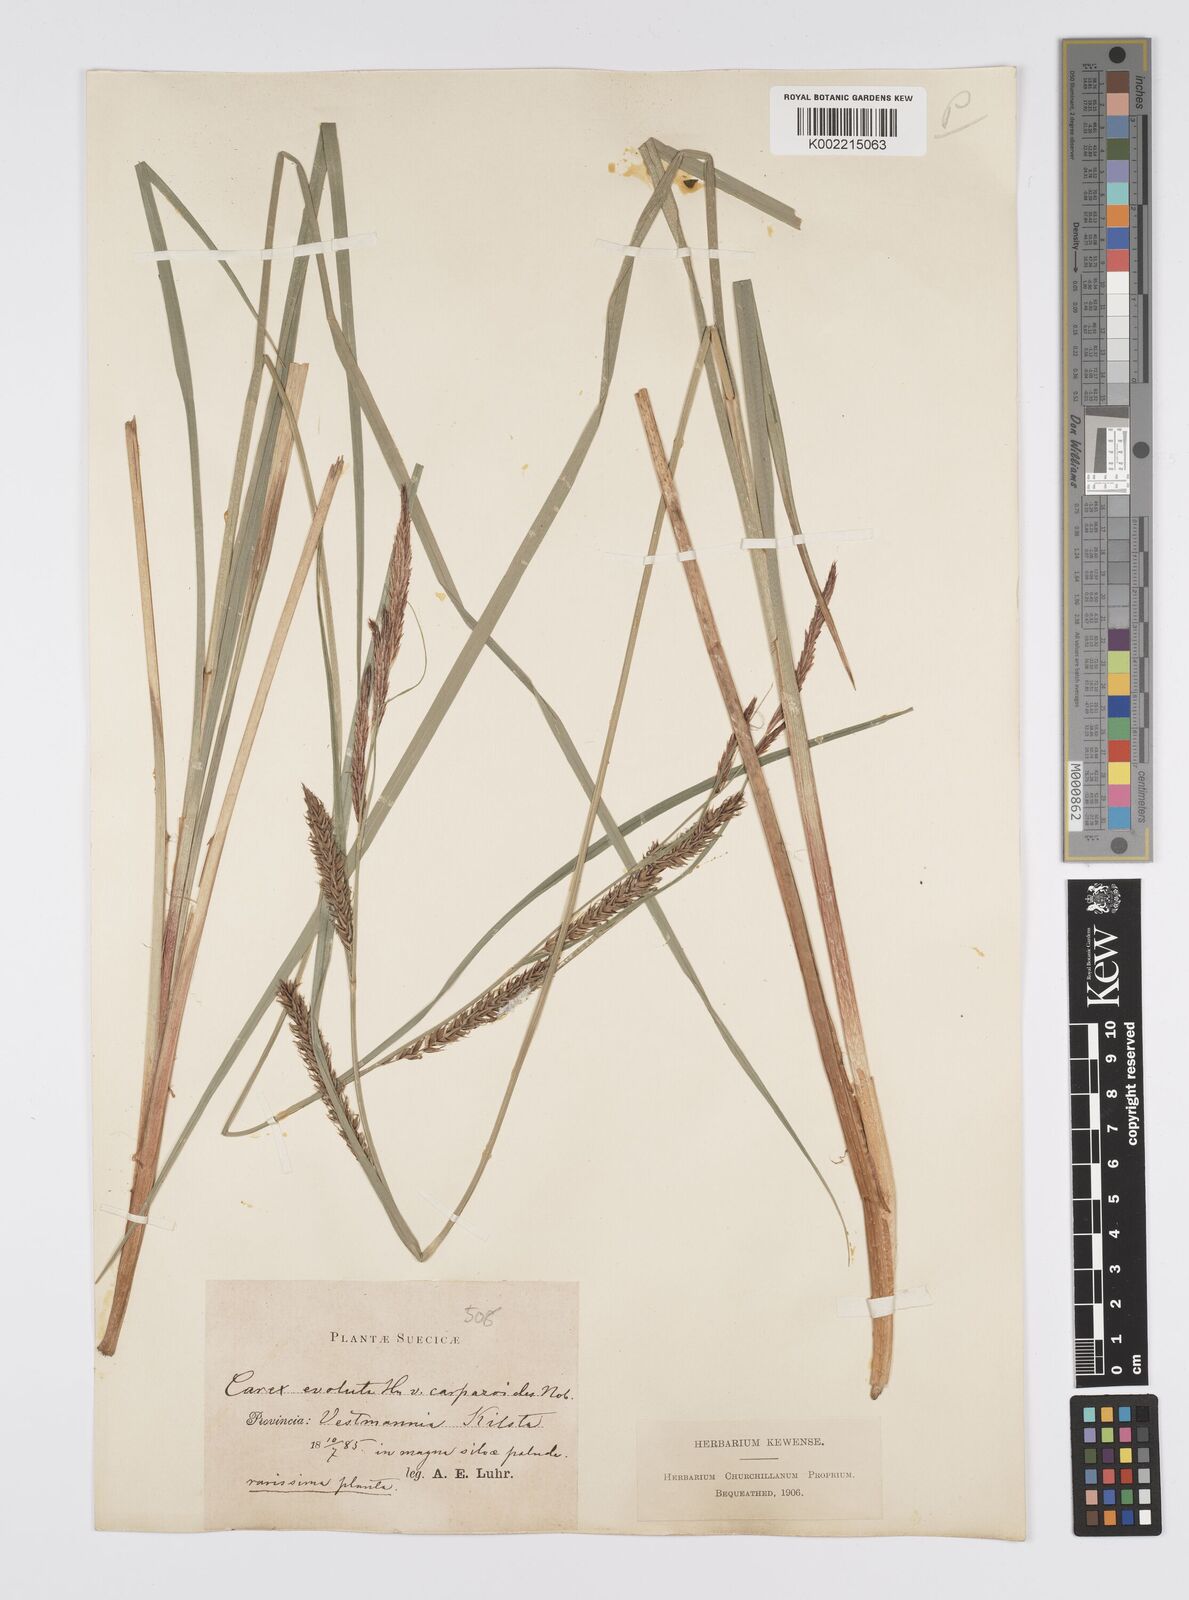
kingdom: Plantae
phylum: Tracheophyta
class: Liliopsida
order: Poales
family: Cyperaceae
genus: Carex
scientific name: Carex evoluta
